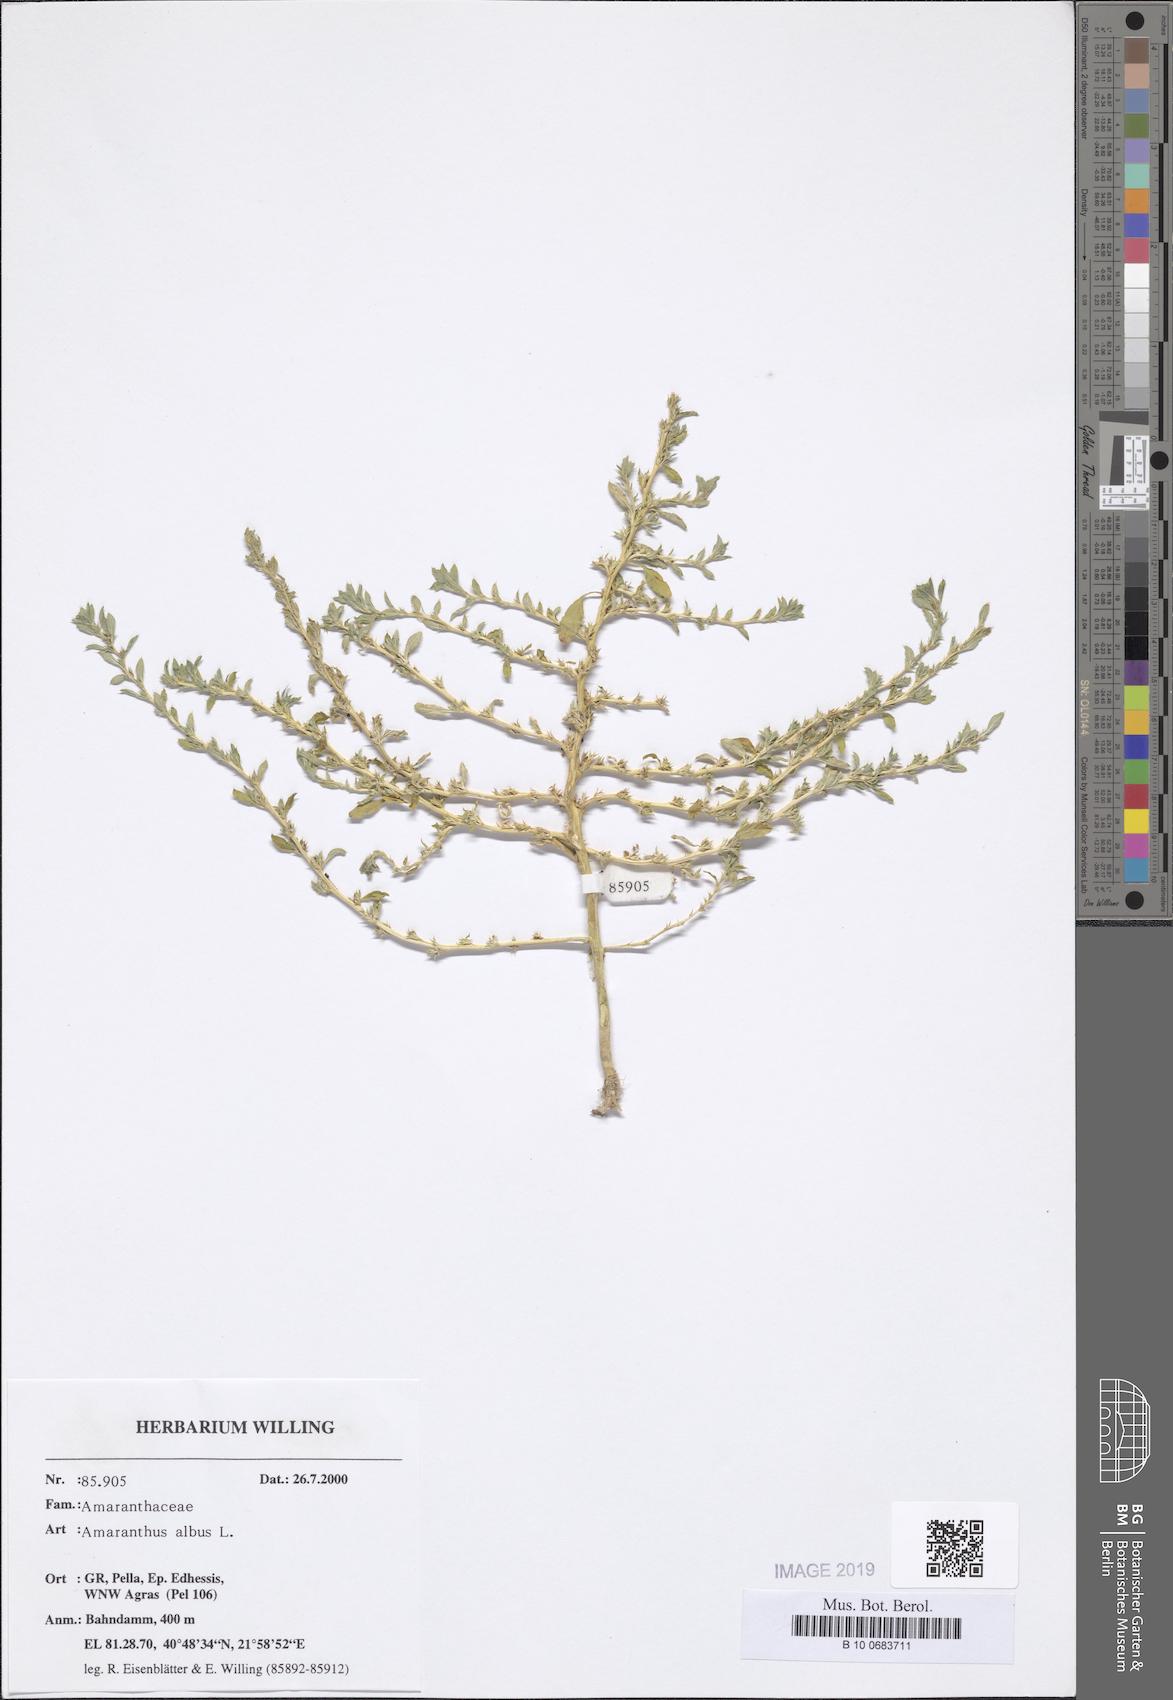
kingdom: Plantae
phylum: Tracheophyta
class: Magnoliopsida
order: Caryophyllales
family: Amaranthaceae
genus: Amaranthus
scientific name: Amaranthus albus
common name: White pigweed
